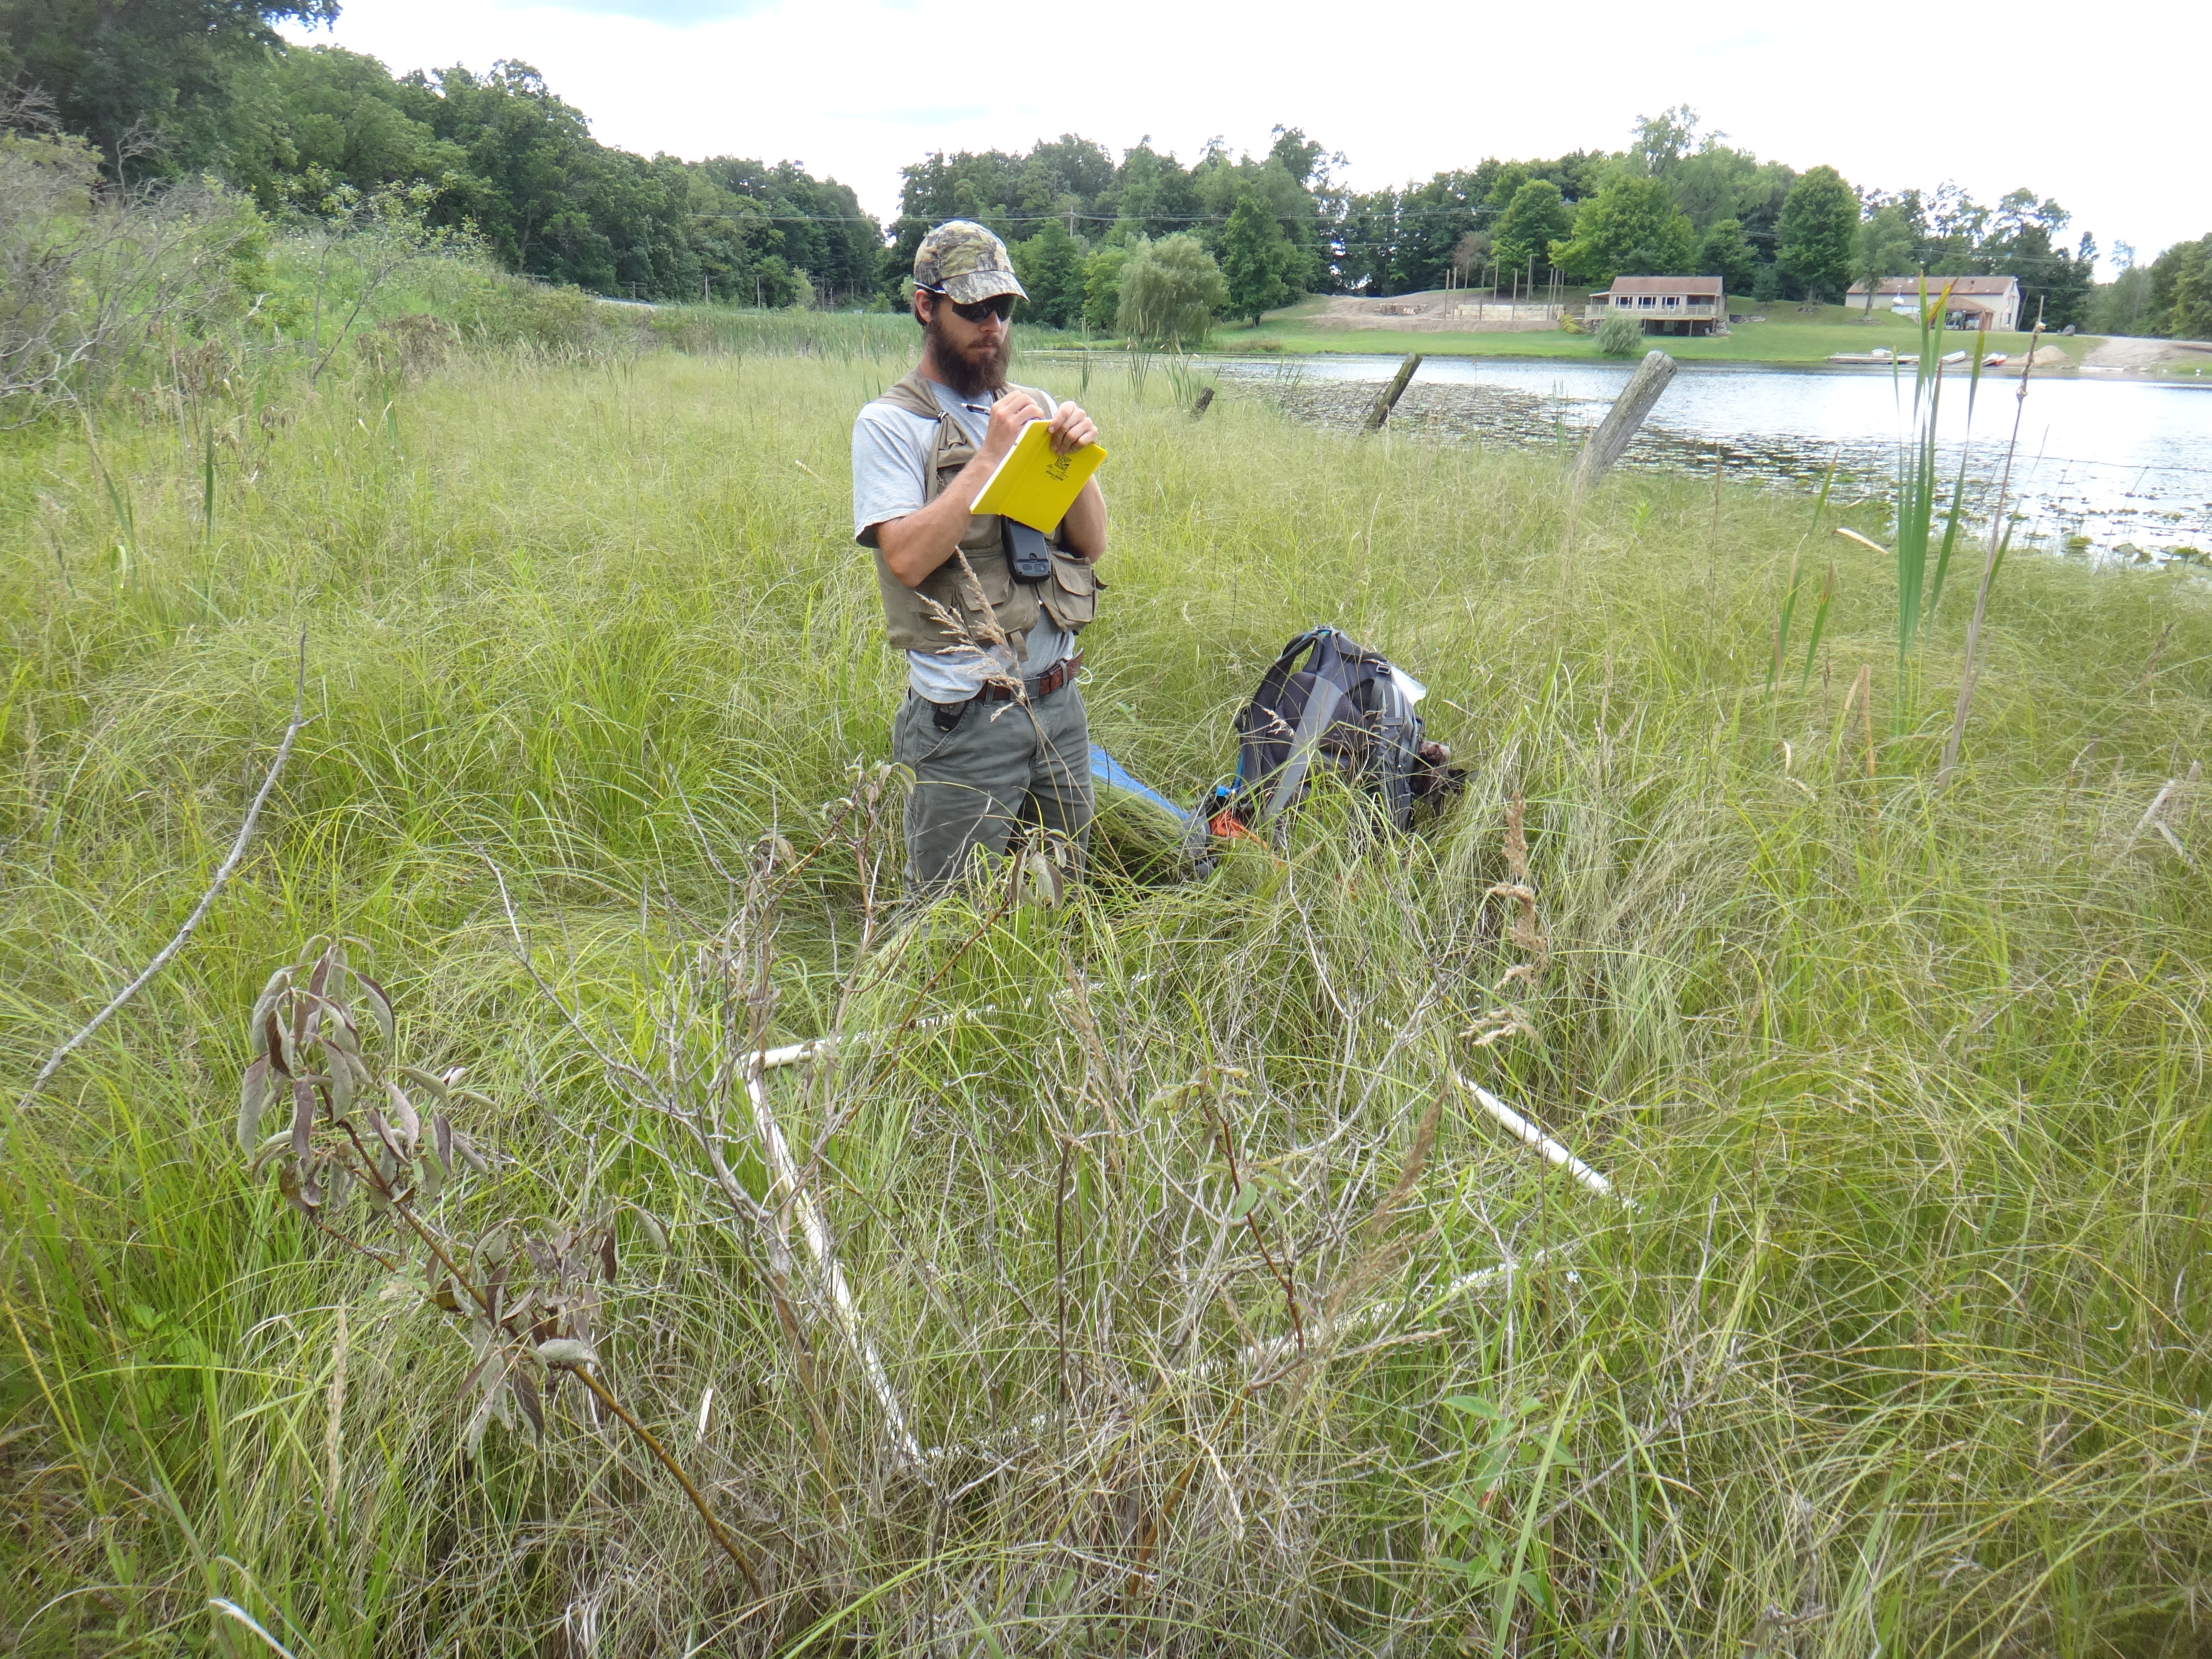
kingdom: Plantae
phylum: Tracheophyta
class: Polypodiopsida
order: Equisetales
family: Equisetaceae
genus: Equisetum
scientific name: Equisetum fluviatile
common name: Water horsetail
